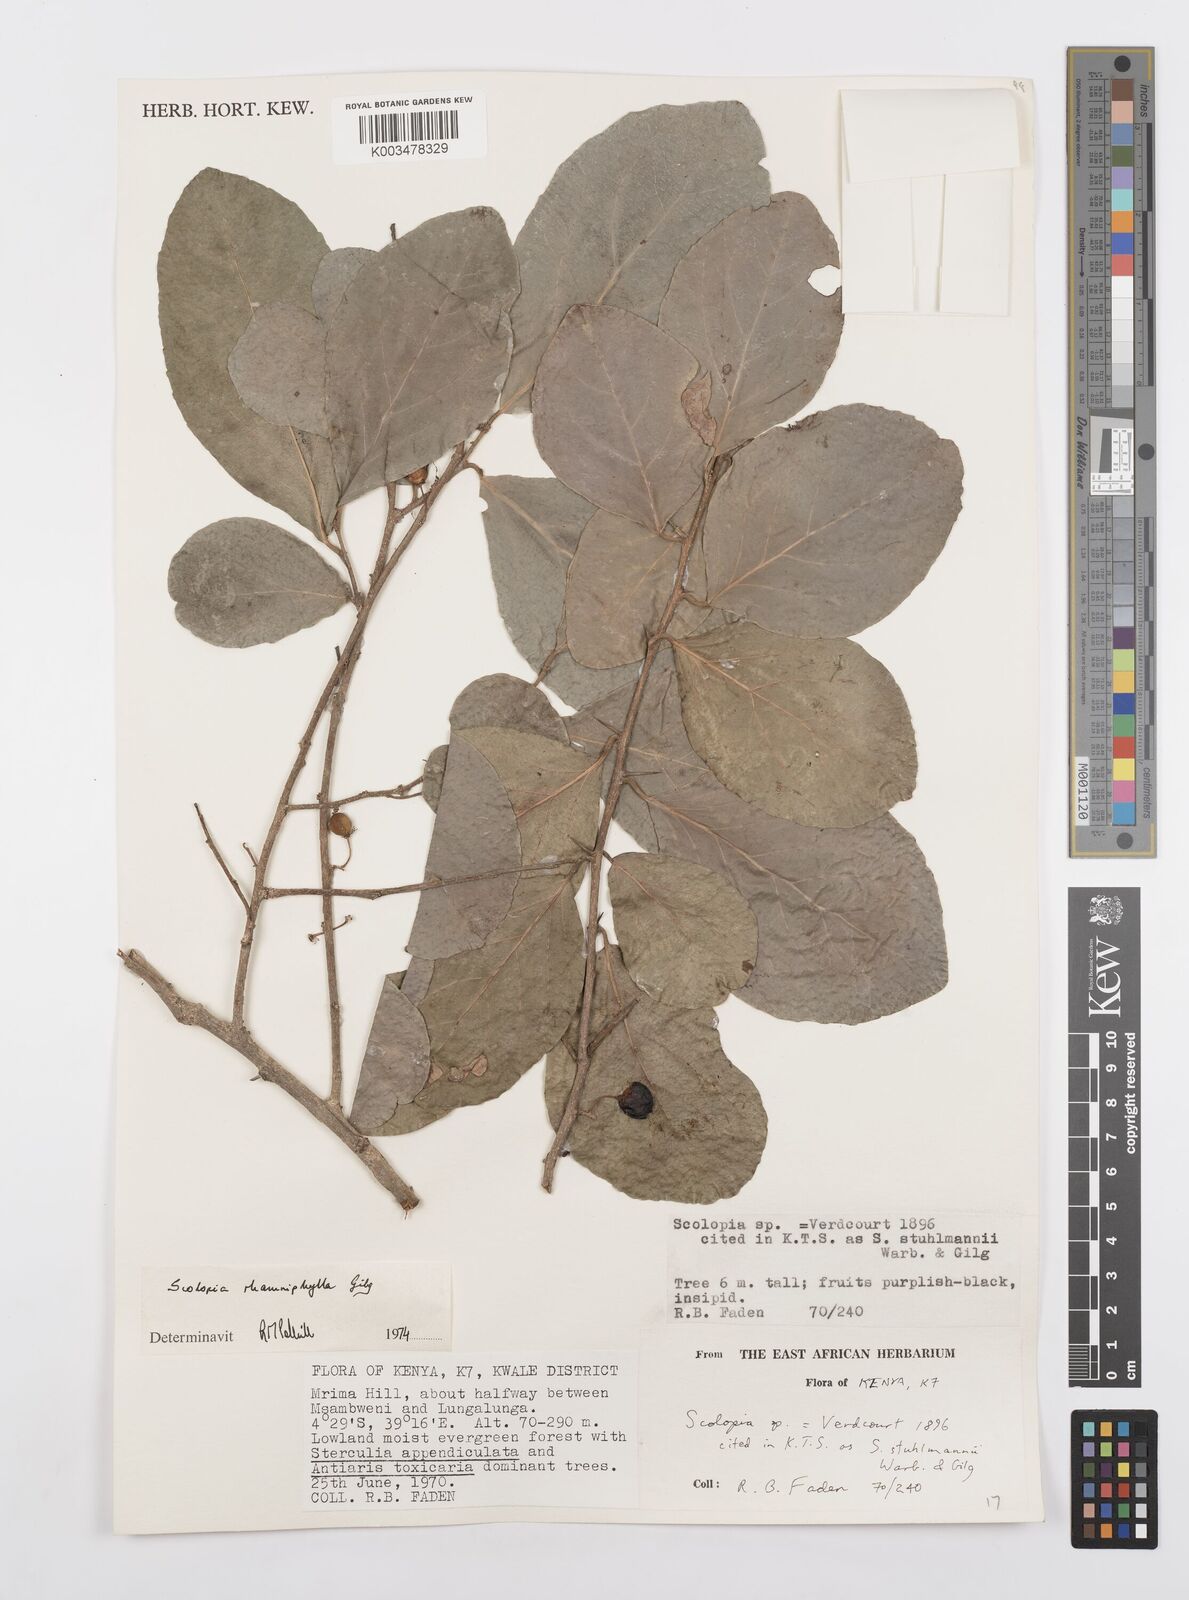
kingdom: Plantae
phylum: Tracheophyta
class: Magnoliopsida
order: Malpighiales
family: Salicaceae
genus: Scolopia
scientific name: Scolopia rhamniphylla
